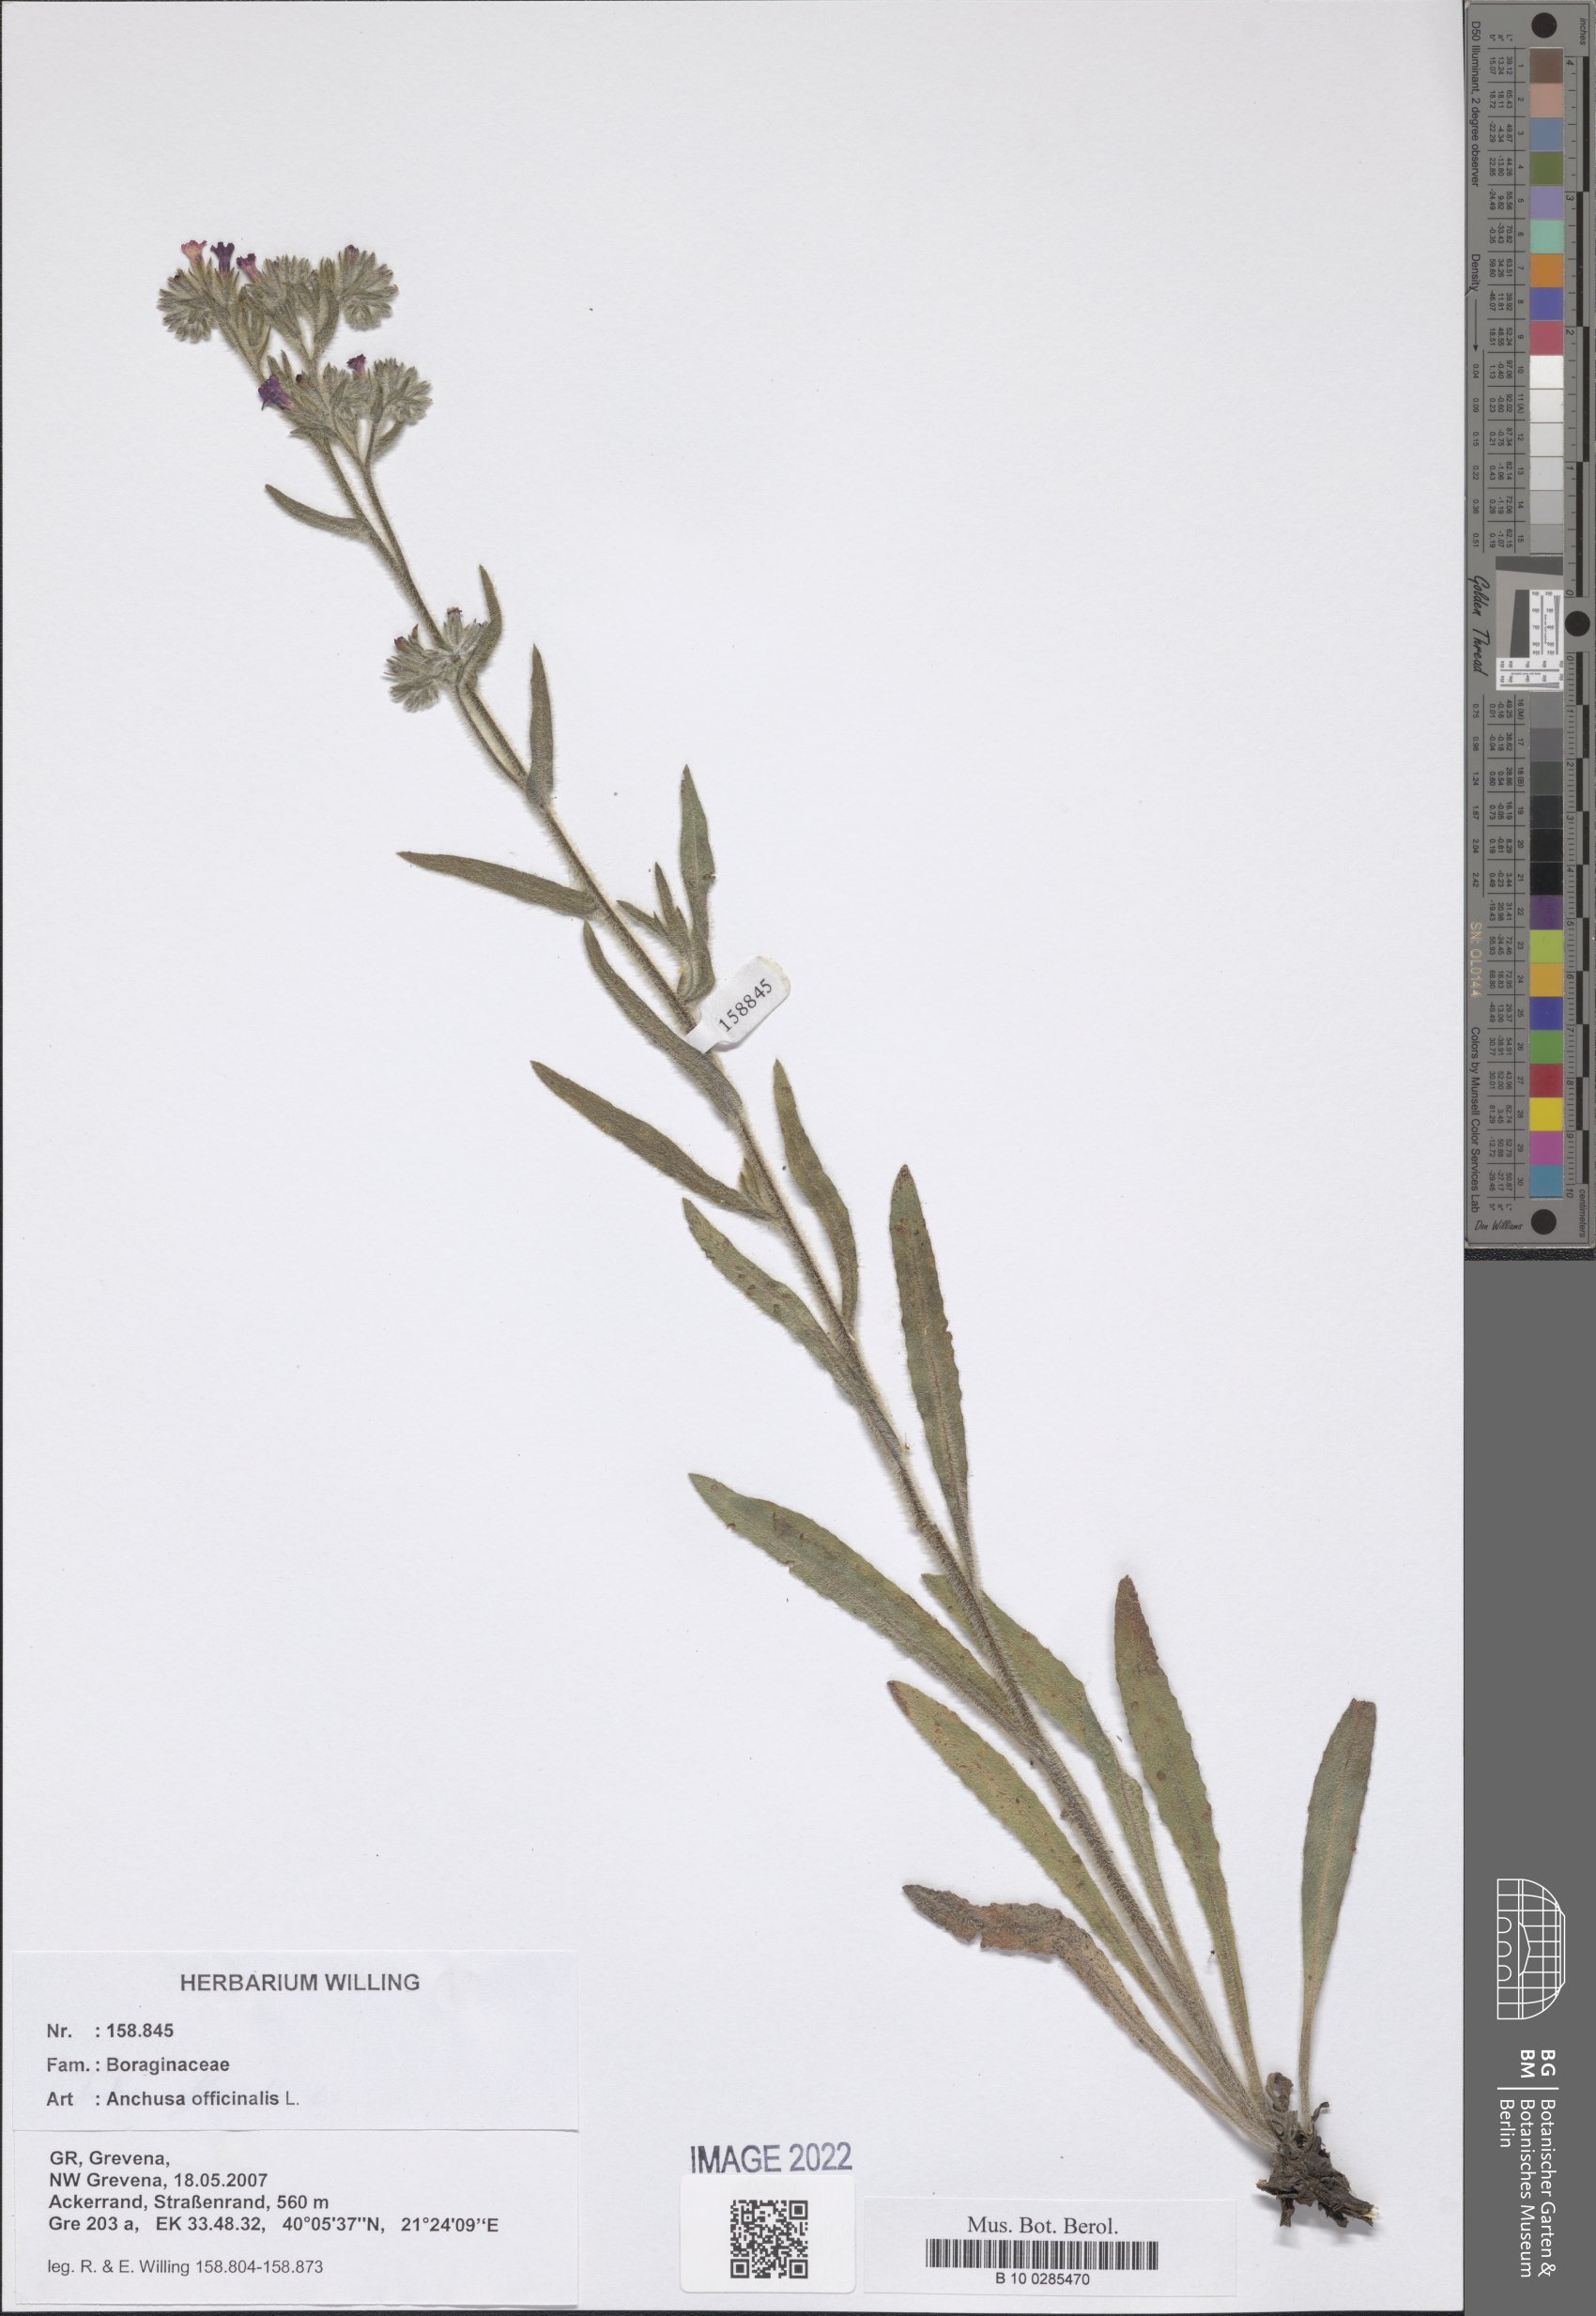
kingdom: Plantae
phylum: Tracheophyta
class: Magnoliopsida
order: Boraginales
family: Boraginaceae
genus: Anchusa
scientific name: Anchusa officinalis
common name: Alkanet
